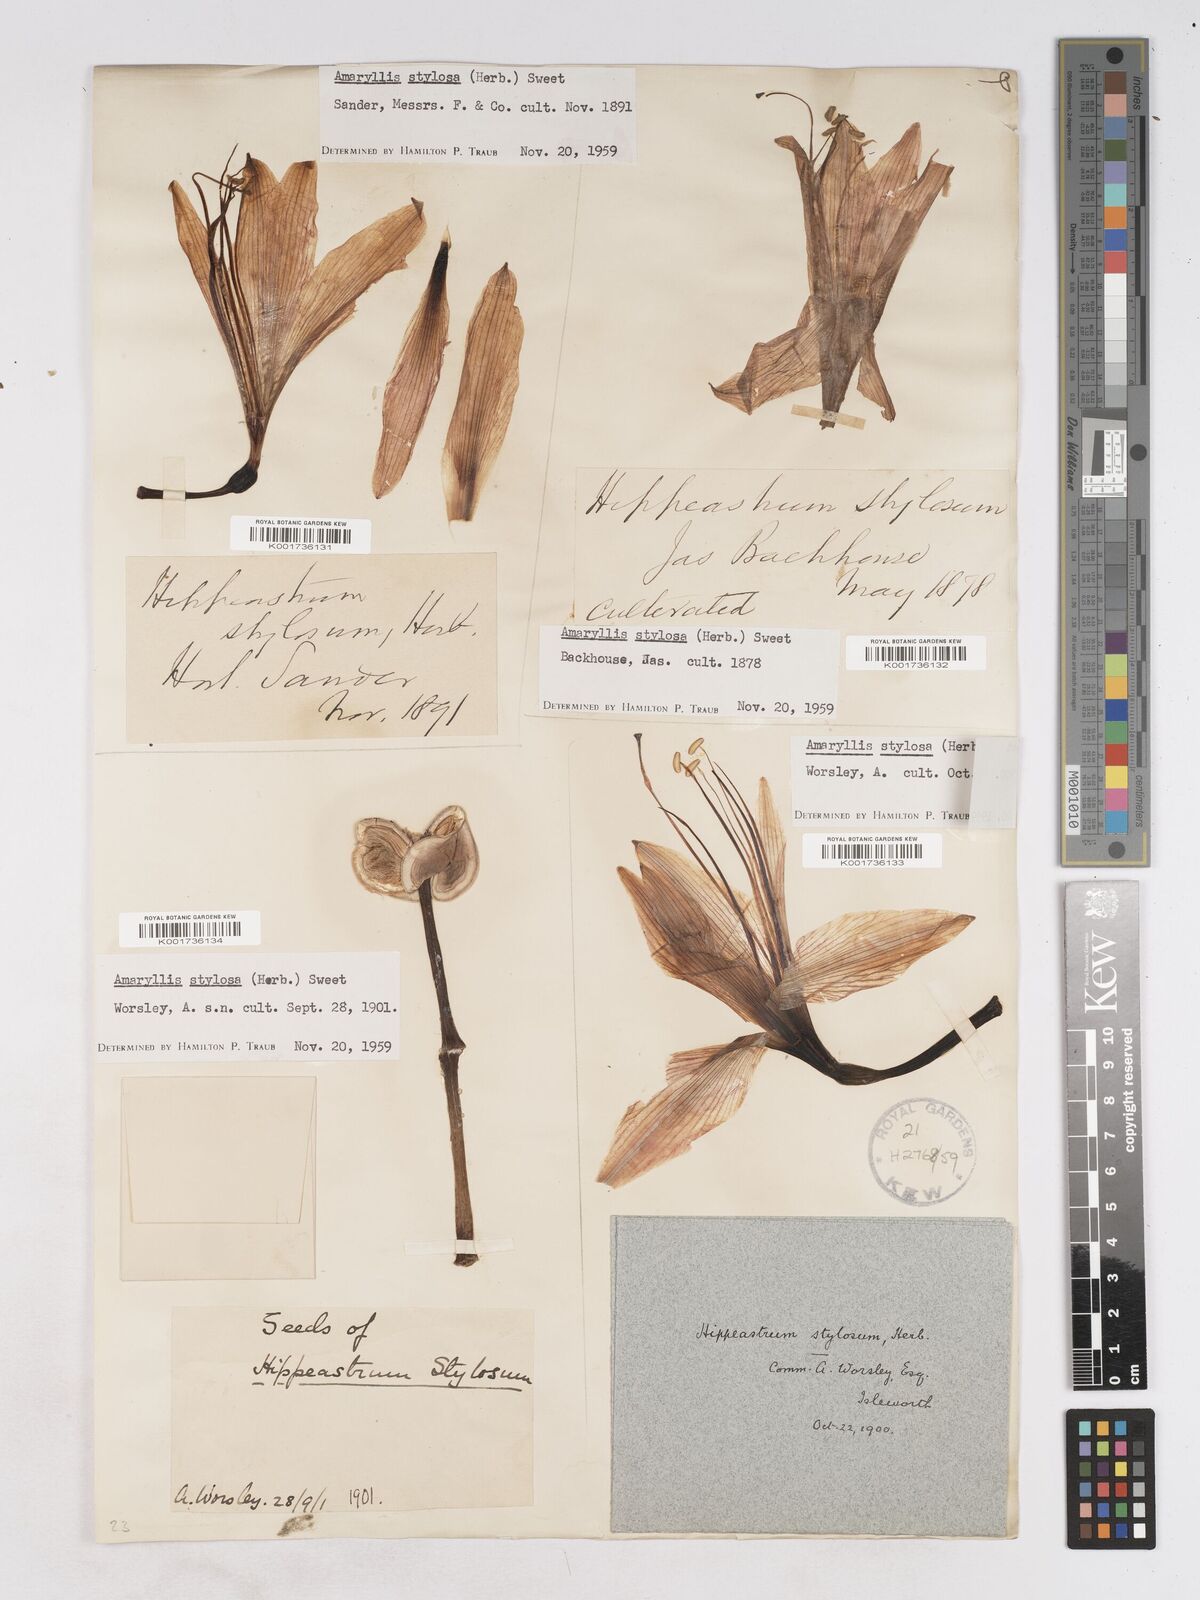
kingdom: Plantae
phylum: Tracheophyta
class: Liliopsida
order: Asparagales
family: Amaryllidaceae
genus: Hippeastrum
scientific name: Hippeastrum stylosum
